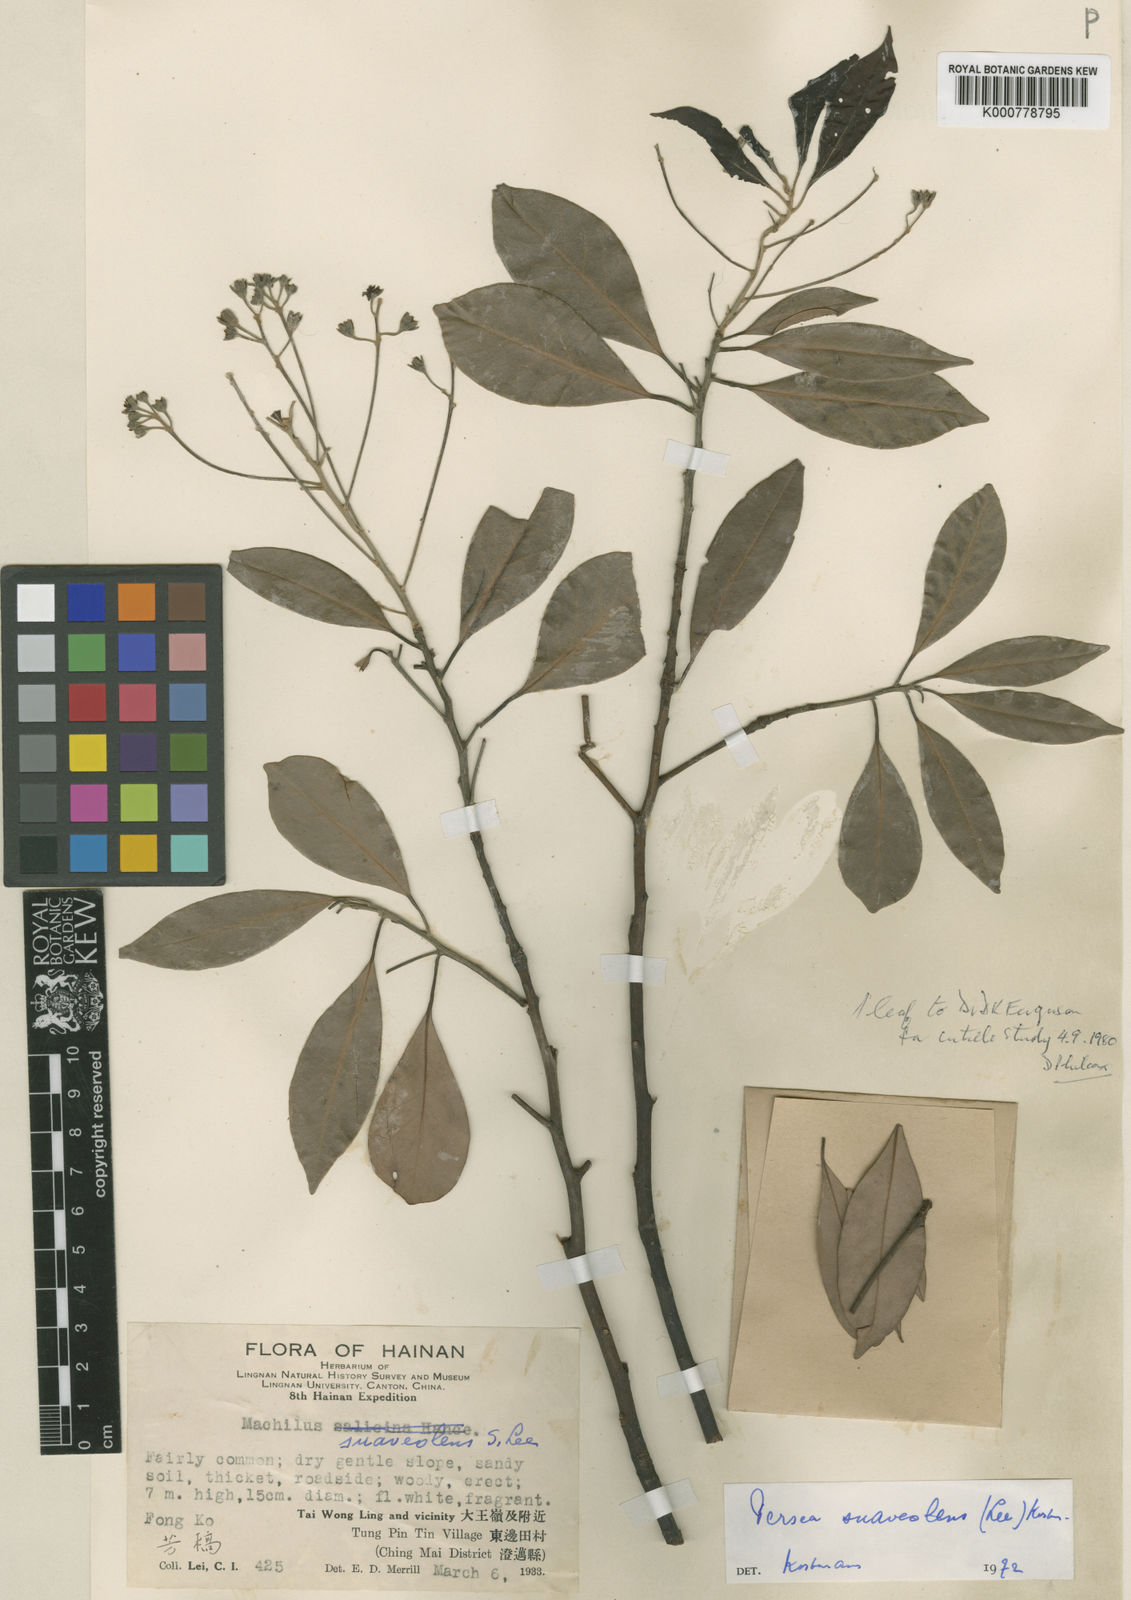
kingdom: Plantae
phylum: Tracheophyta
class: Magnoliopsida
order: Laurales
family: Lauraceae
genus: Machilus
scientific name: Machilus gamblei
